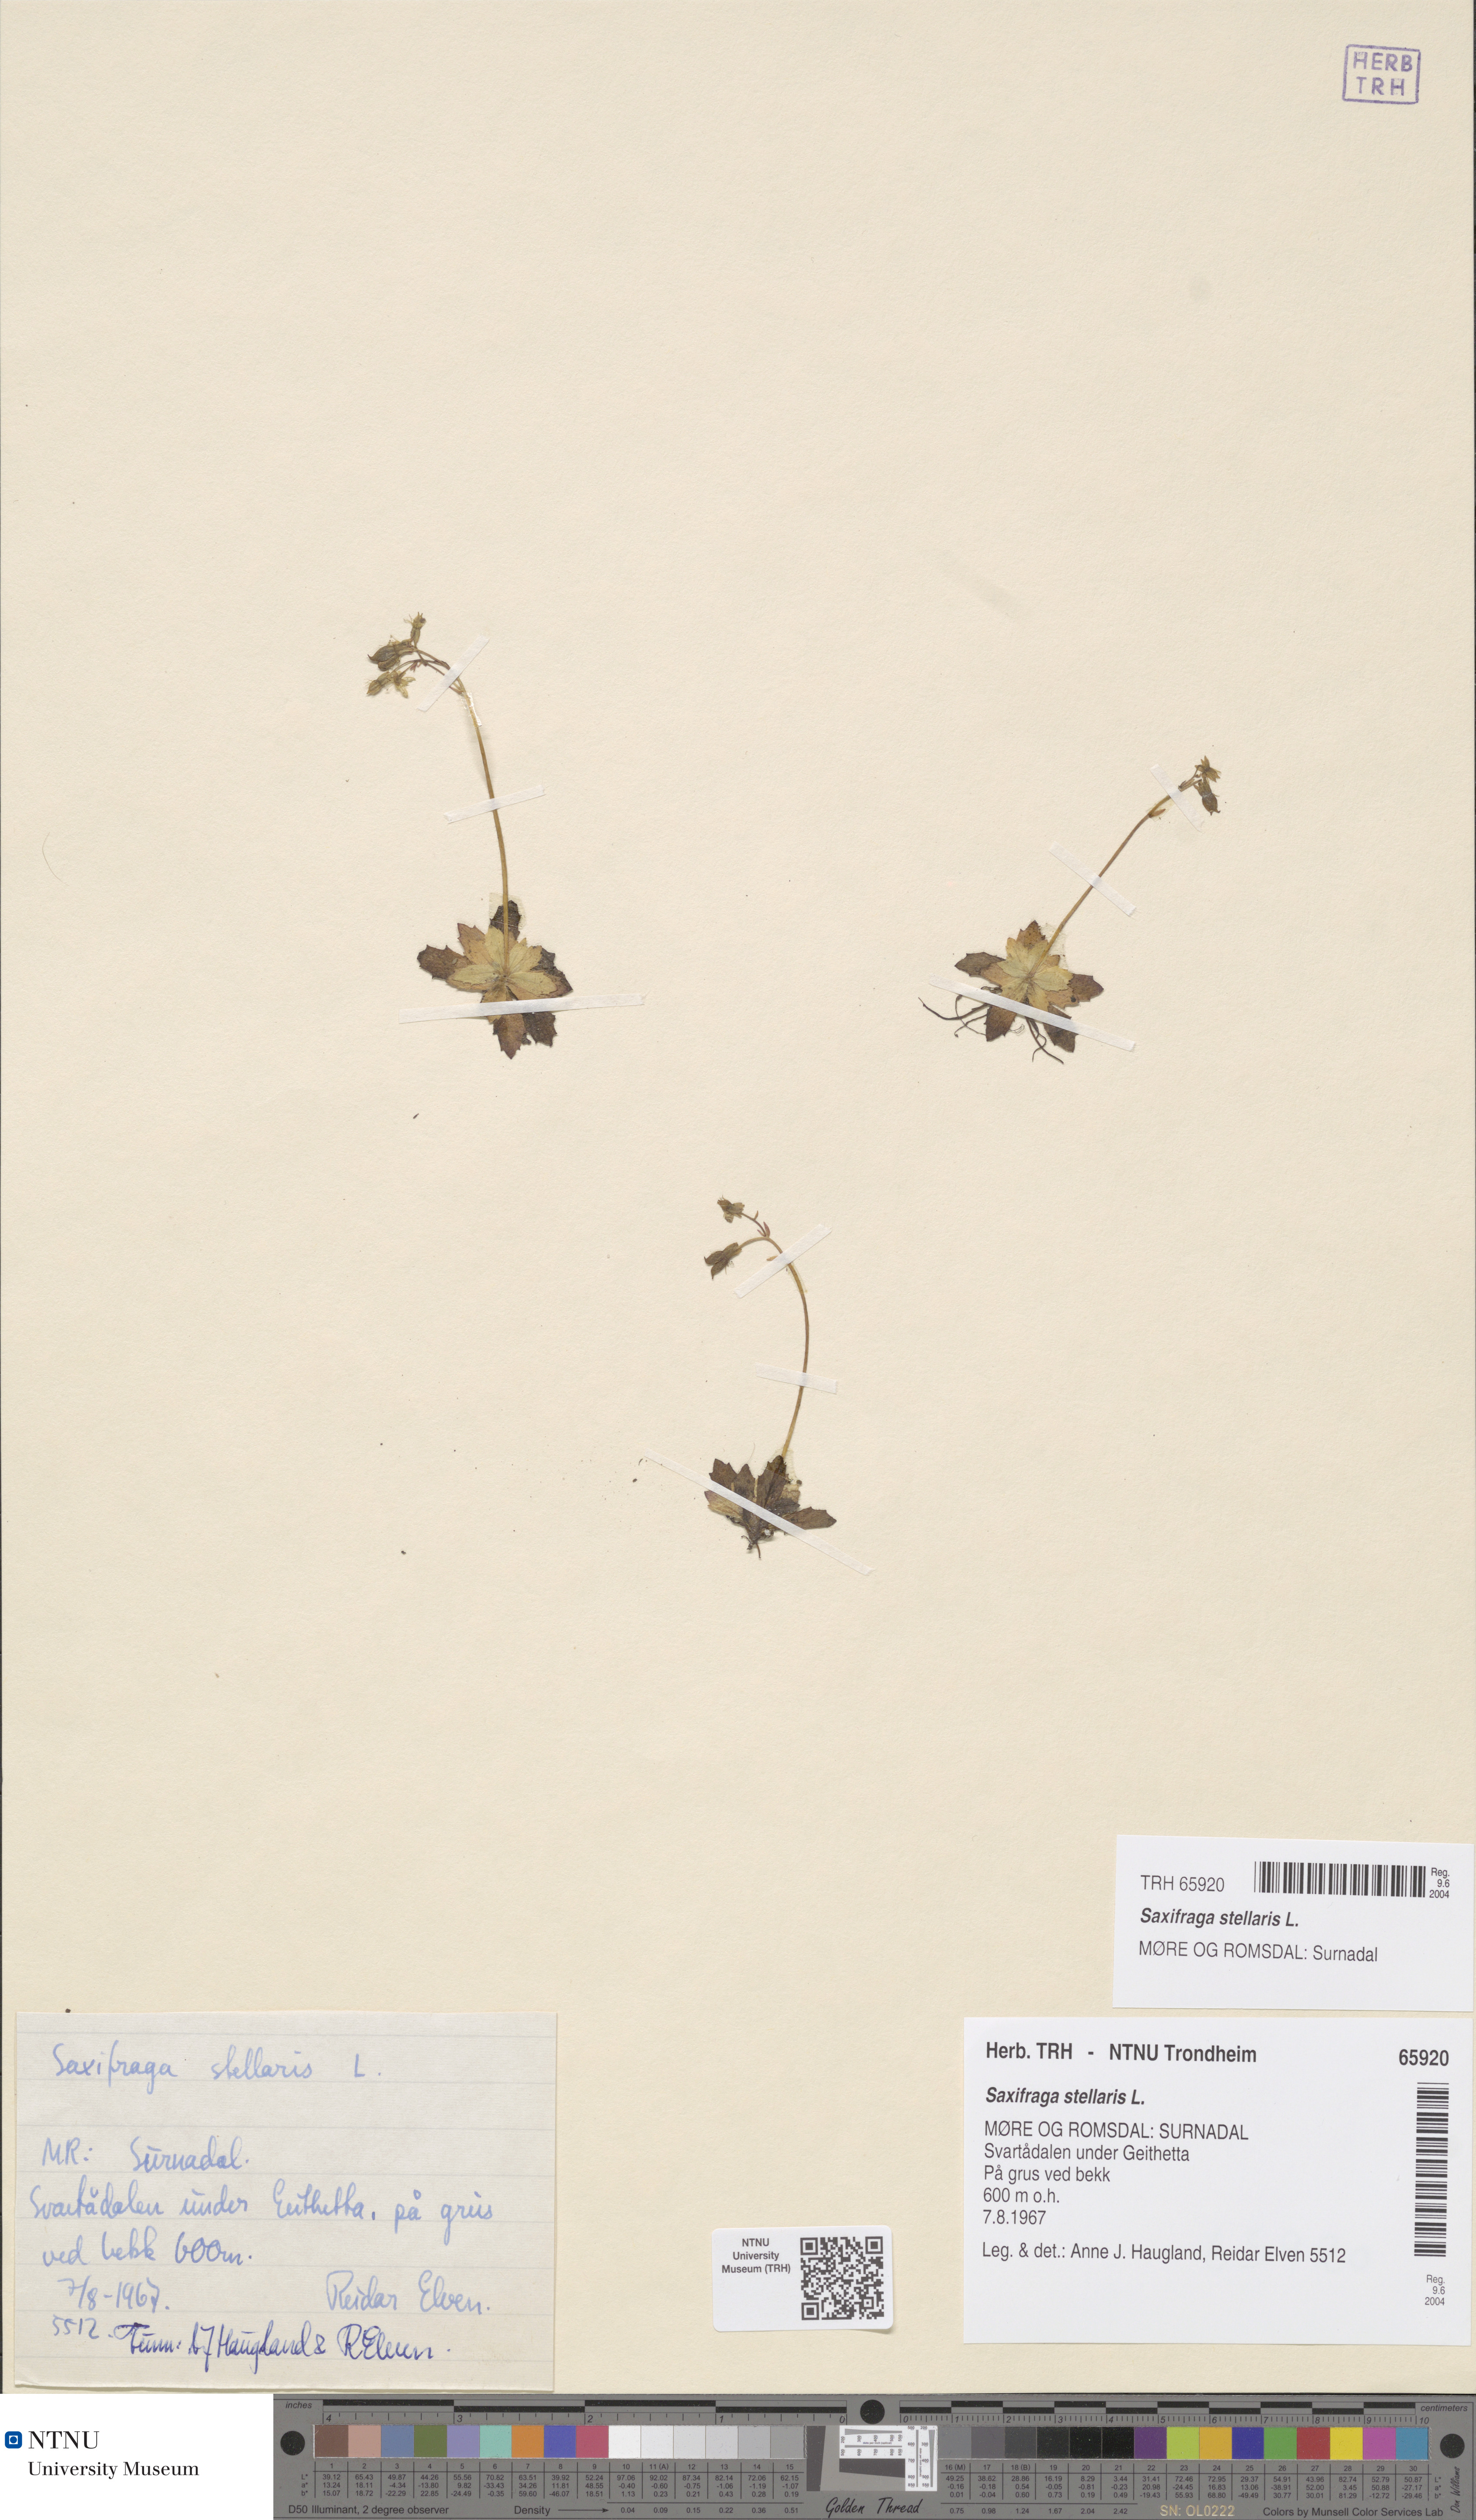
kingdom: Plantae
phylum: Tracheophyta
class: Magnoliopsida
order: Saxifragales
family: Saxifragaceae
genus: Micranthes
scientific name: Micranthes stellaris
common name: Starry saxifrage
